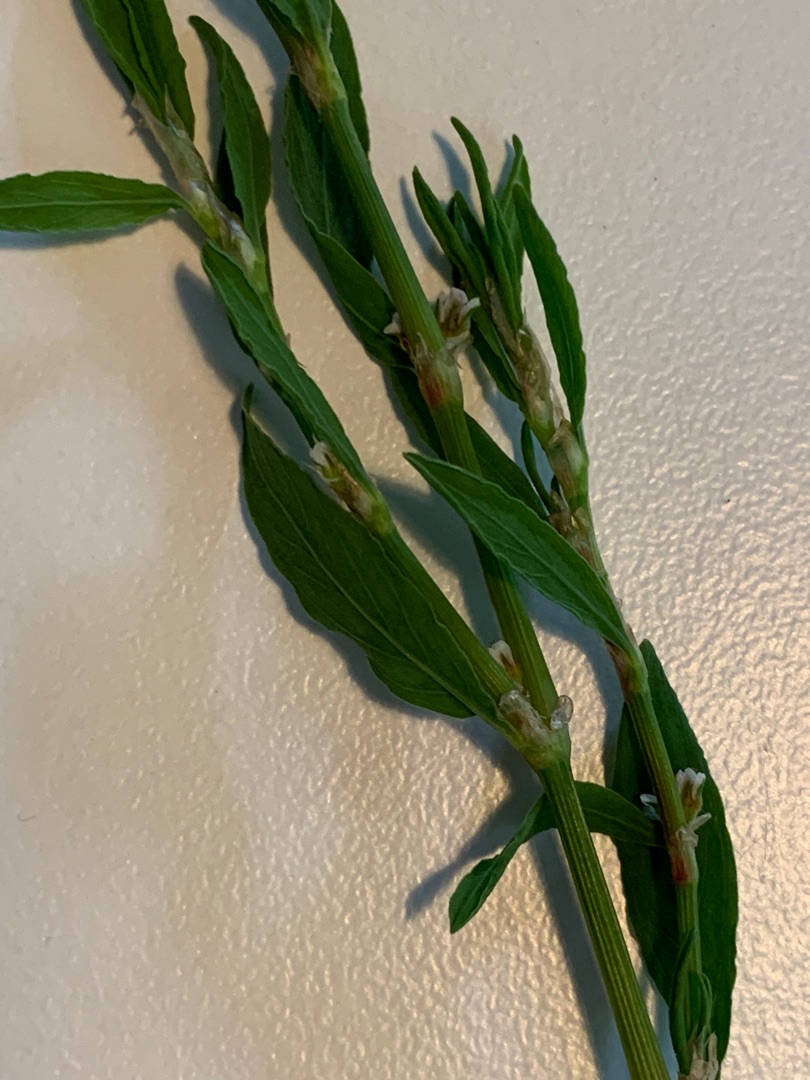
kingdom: Plantae
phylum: Tracheophyta
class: Magnoliopsida
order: Caryophyllales
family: Polygonaceae
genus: Polygonum
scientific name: Polygonum arenastrum
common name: Liggende vej-pileurt
